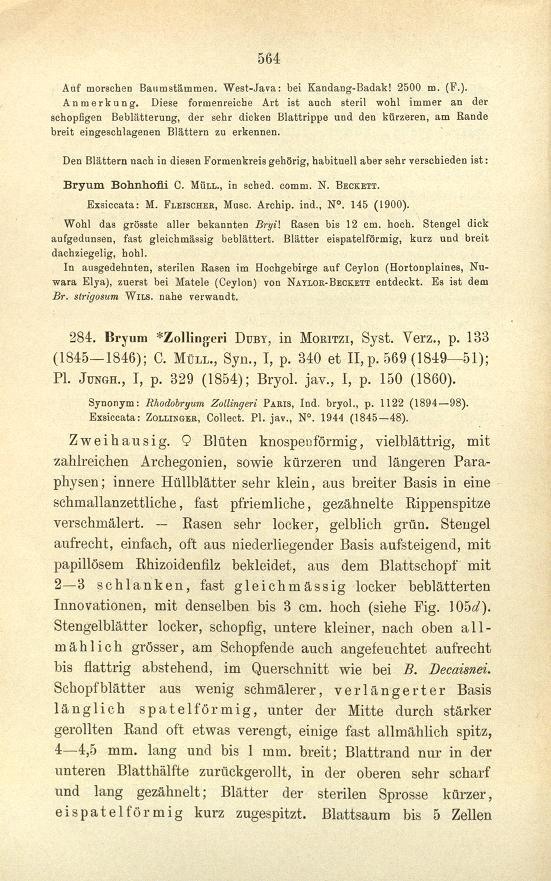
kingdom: Plantae
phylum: Bryophyta
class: Bryopsida
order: Bryales
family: Bryaceae
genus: Bryum
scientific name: Bryum neelgheriense
